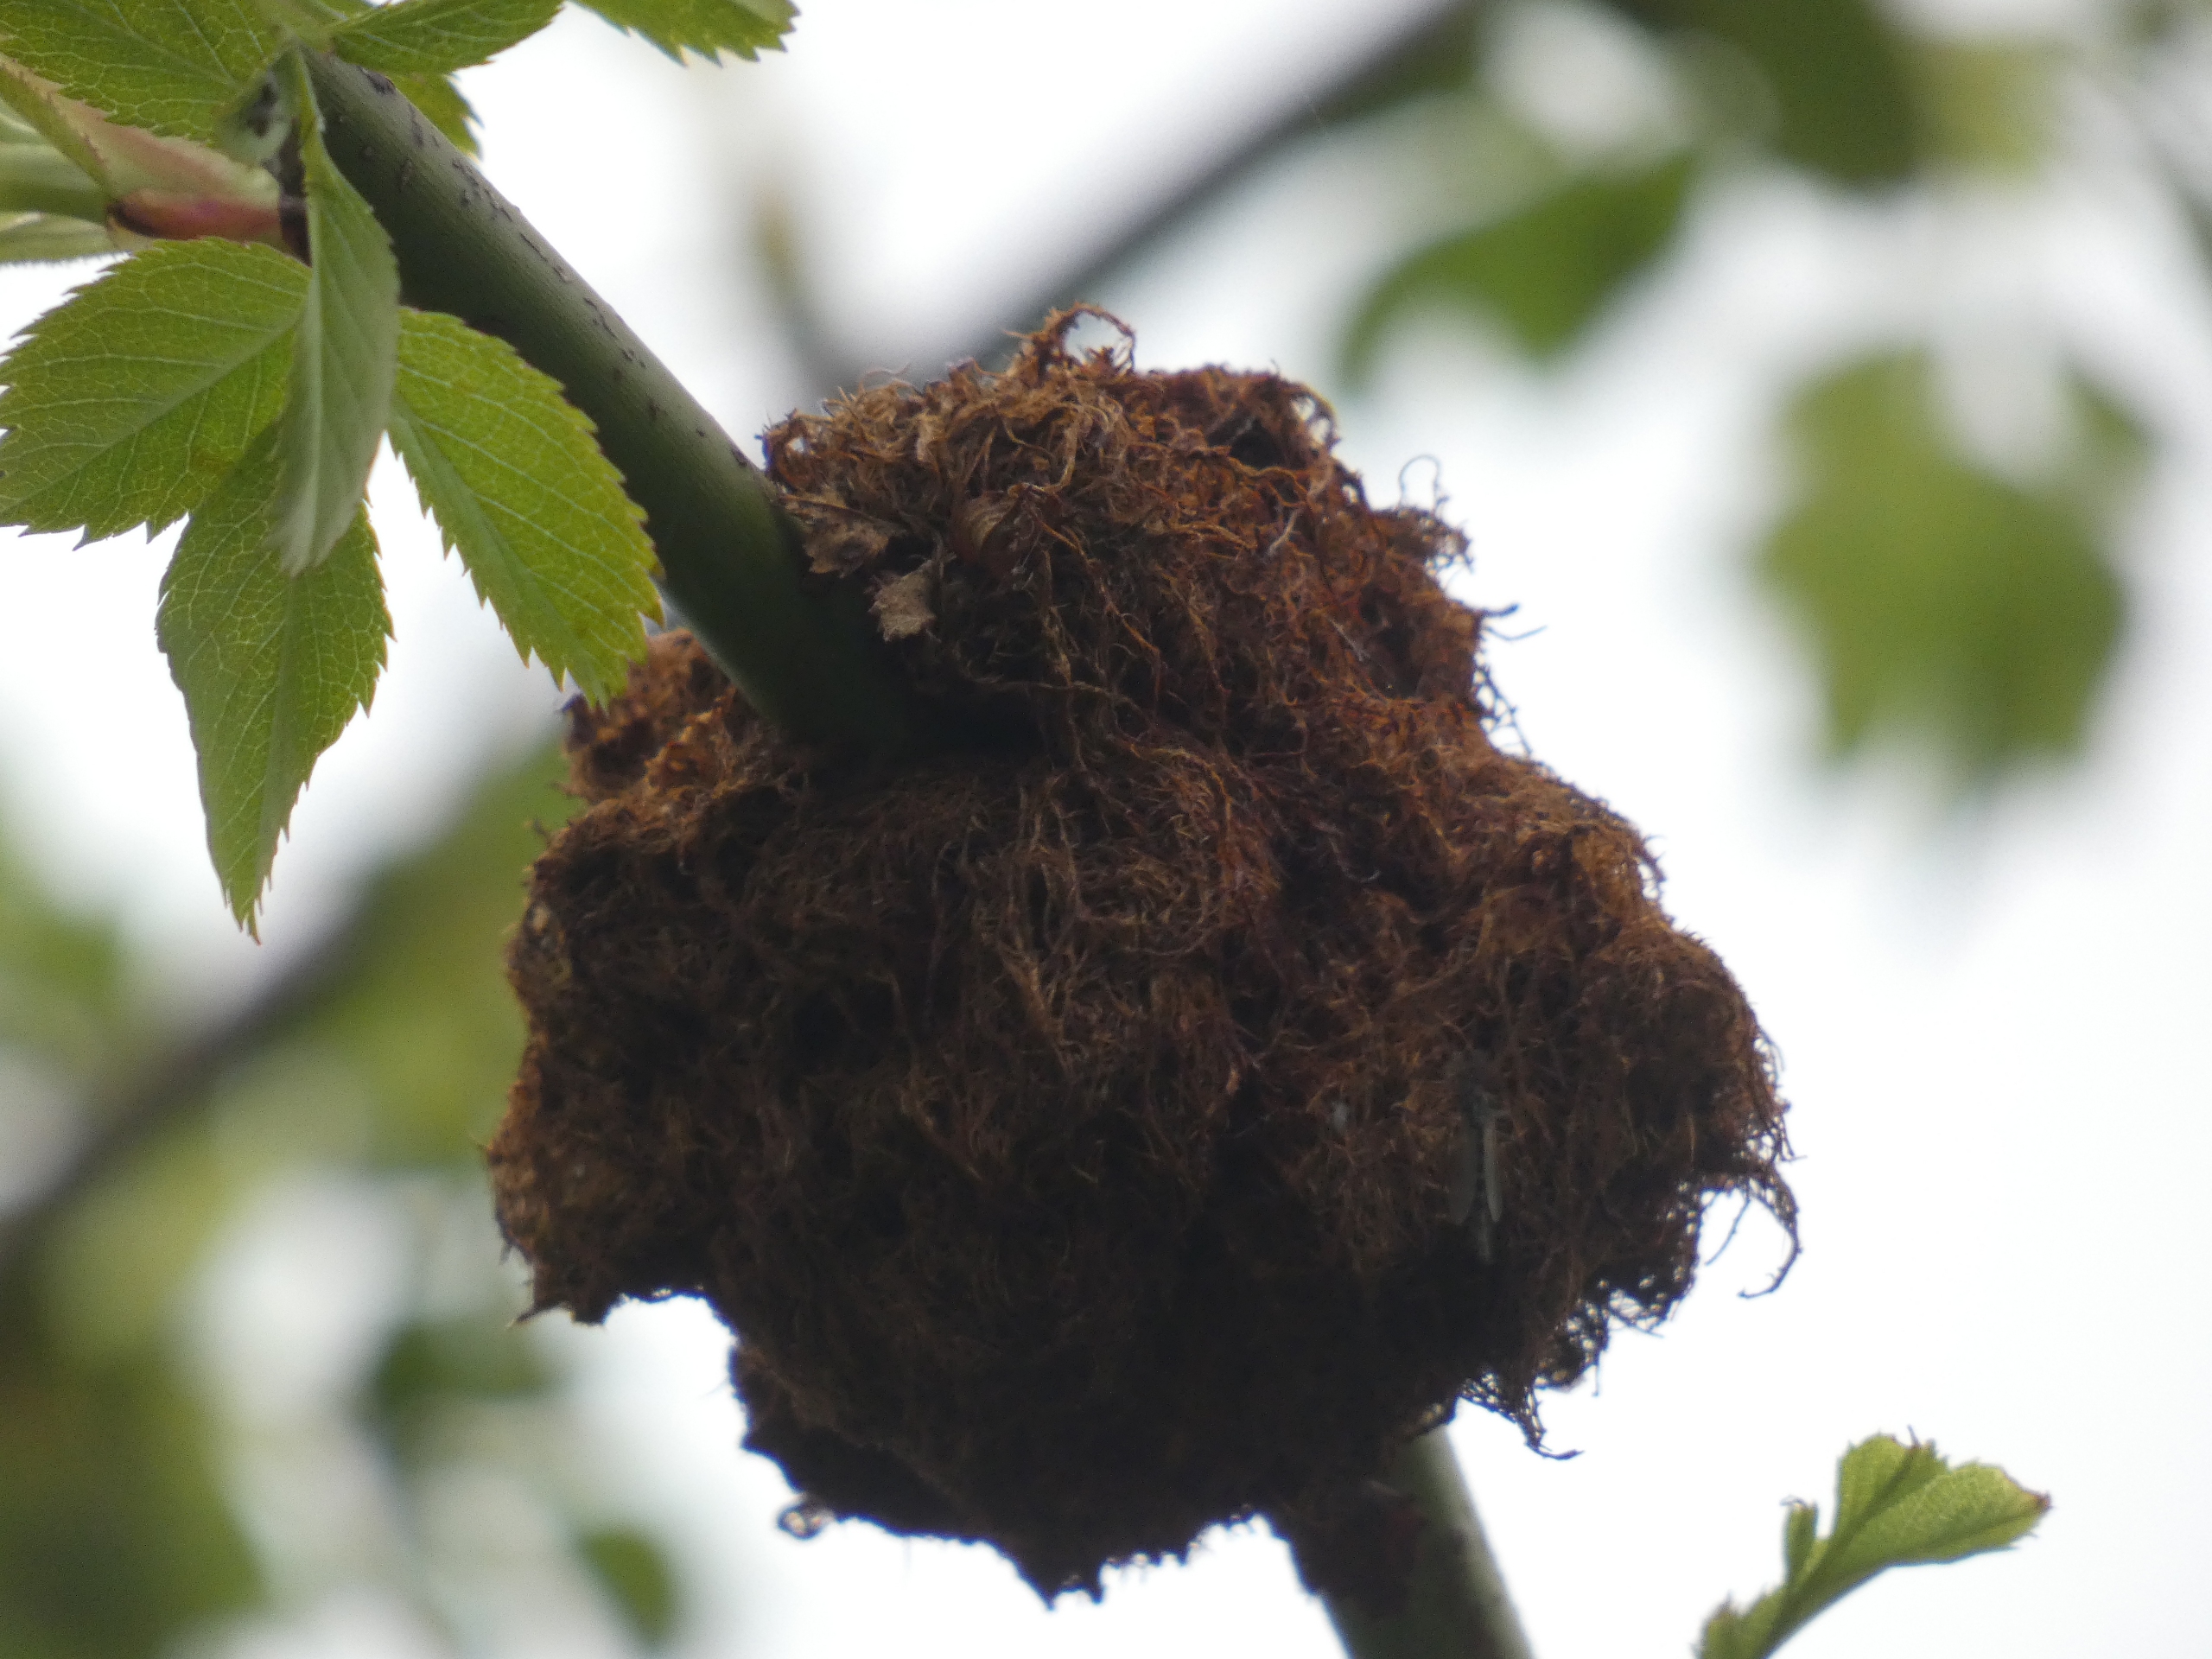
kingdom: Animalia
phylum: Arthropoda
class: Insecta
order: Hymenoptera
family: Cynipidae
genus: Diplolepis
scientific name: Diplolepis rosae
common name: Bedeguargalhveps
